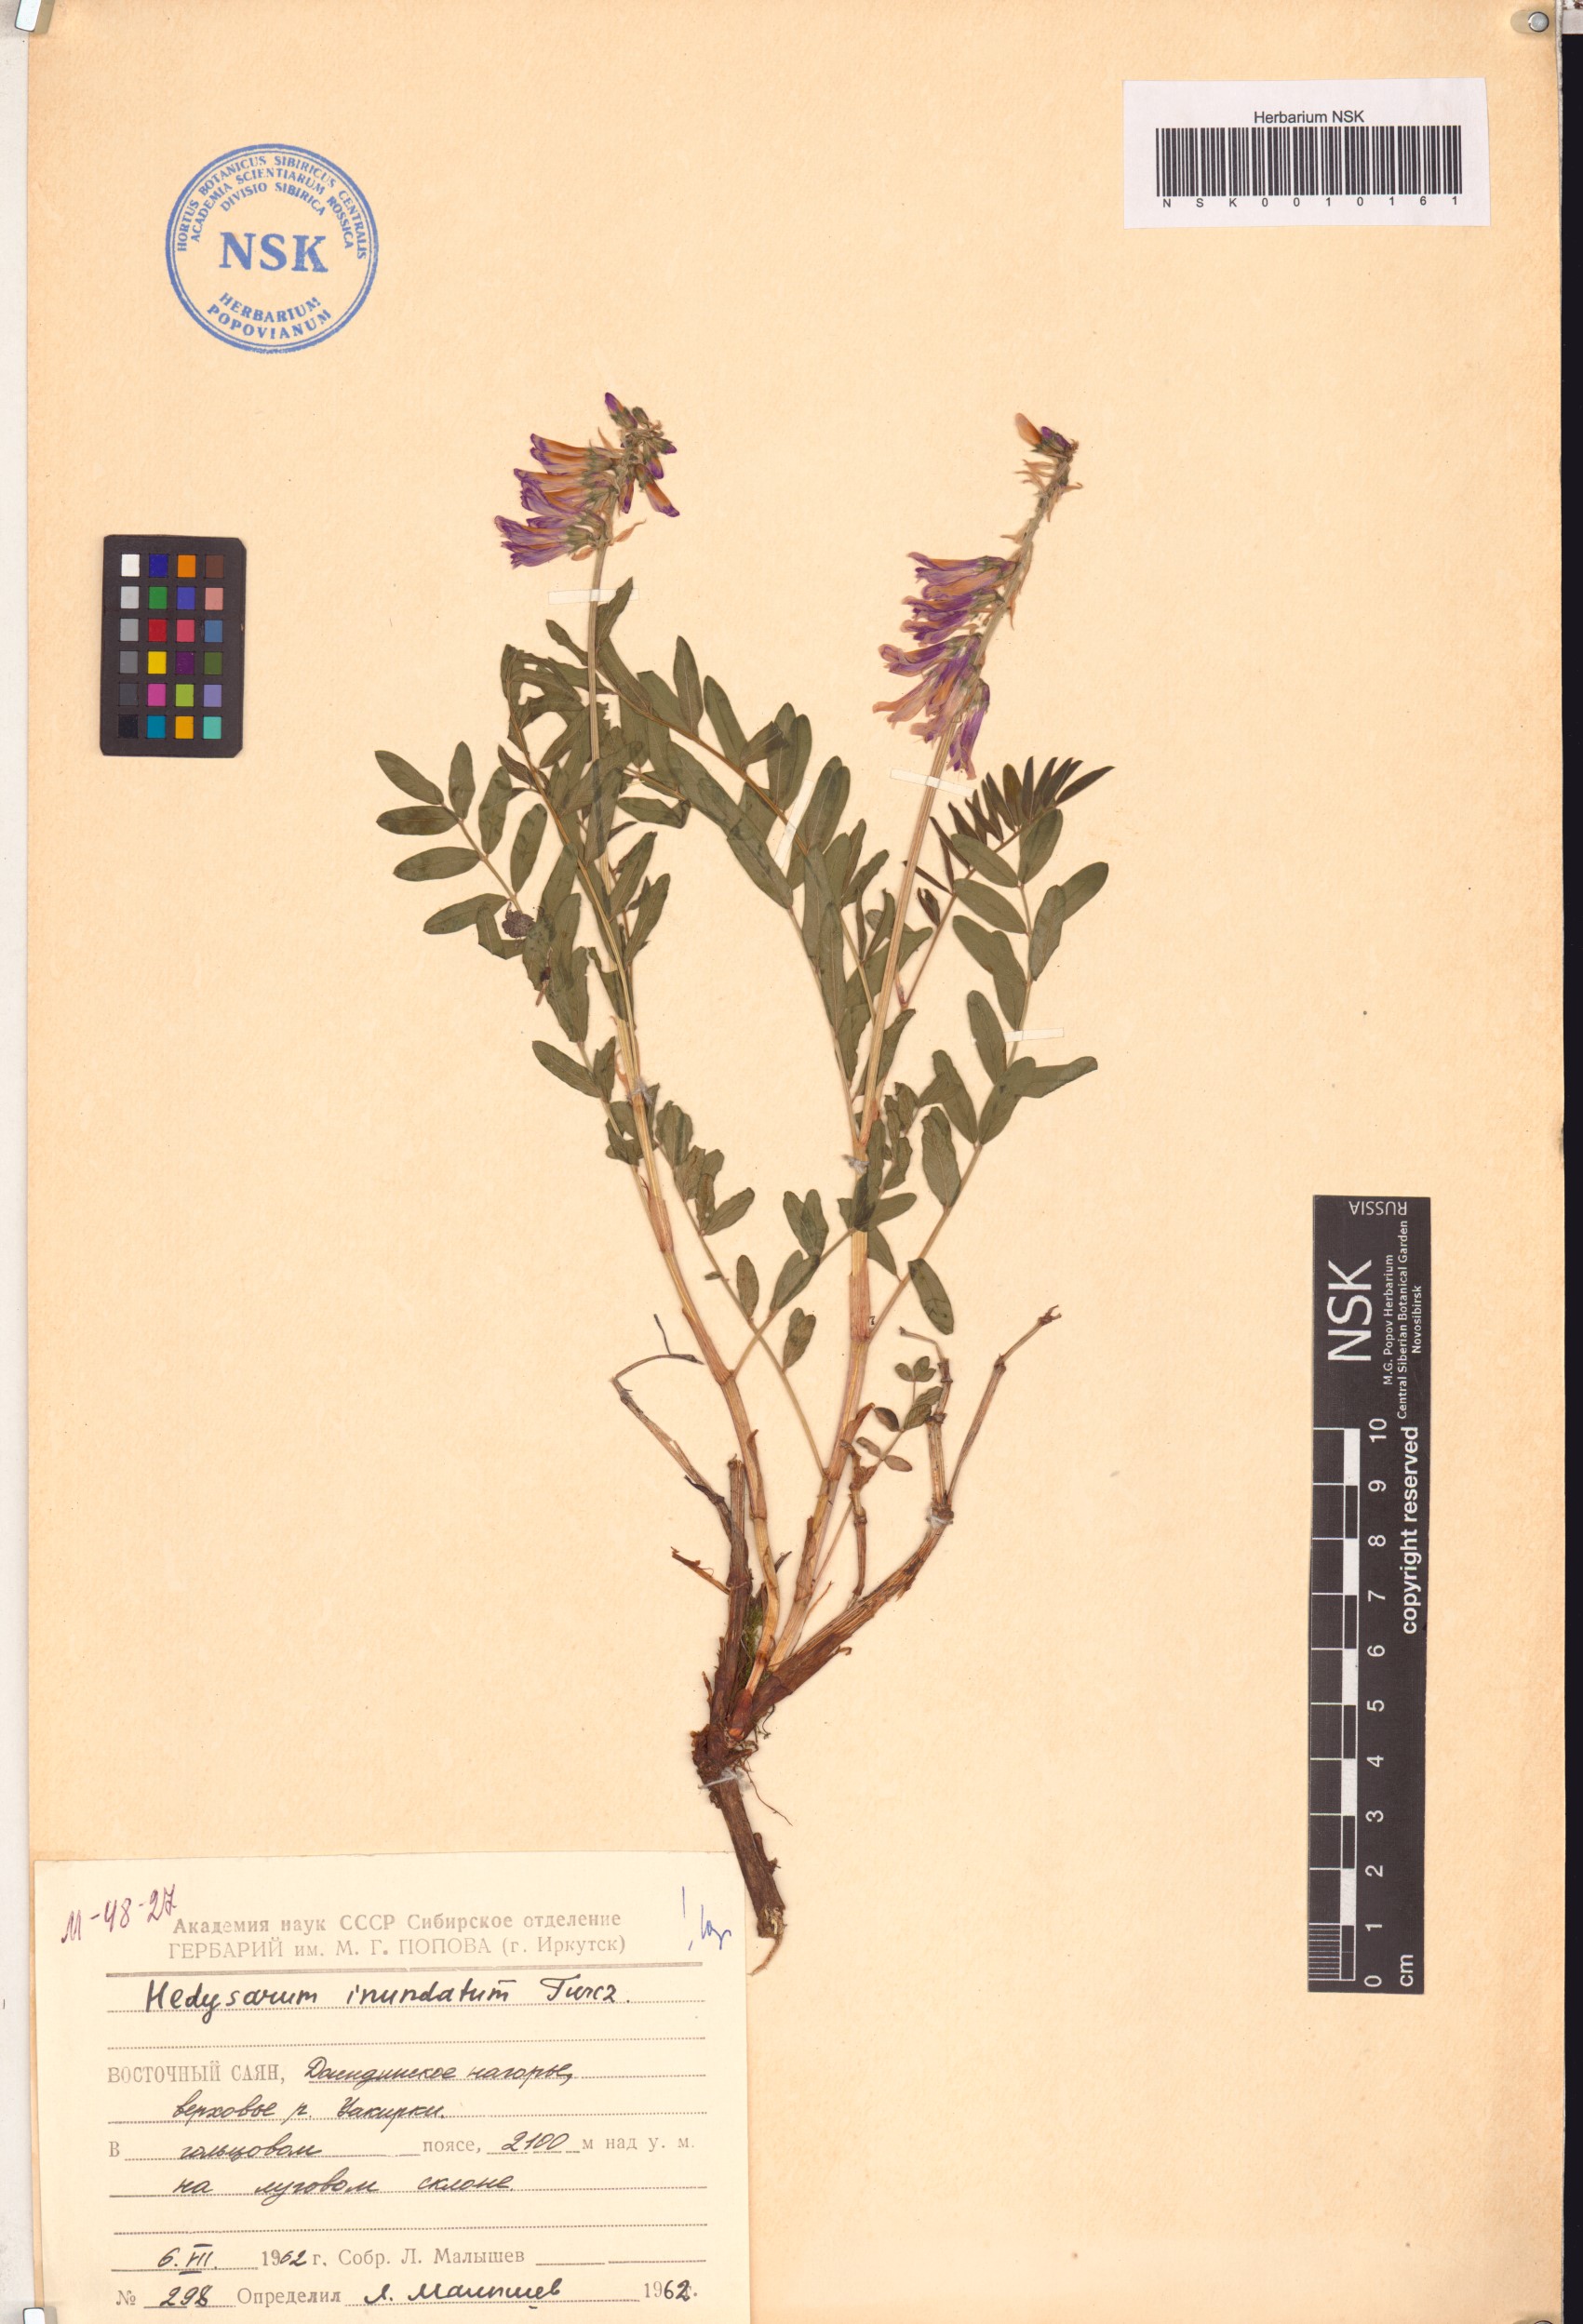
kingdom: Plantae
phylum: Tracheophyta
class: Magnoliopsida
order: Fabales
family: Fabaceae
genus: Hedysarum
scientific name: Hedysarum inundatum
